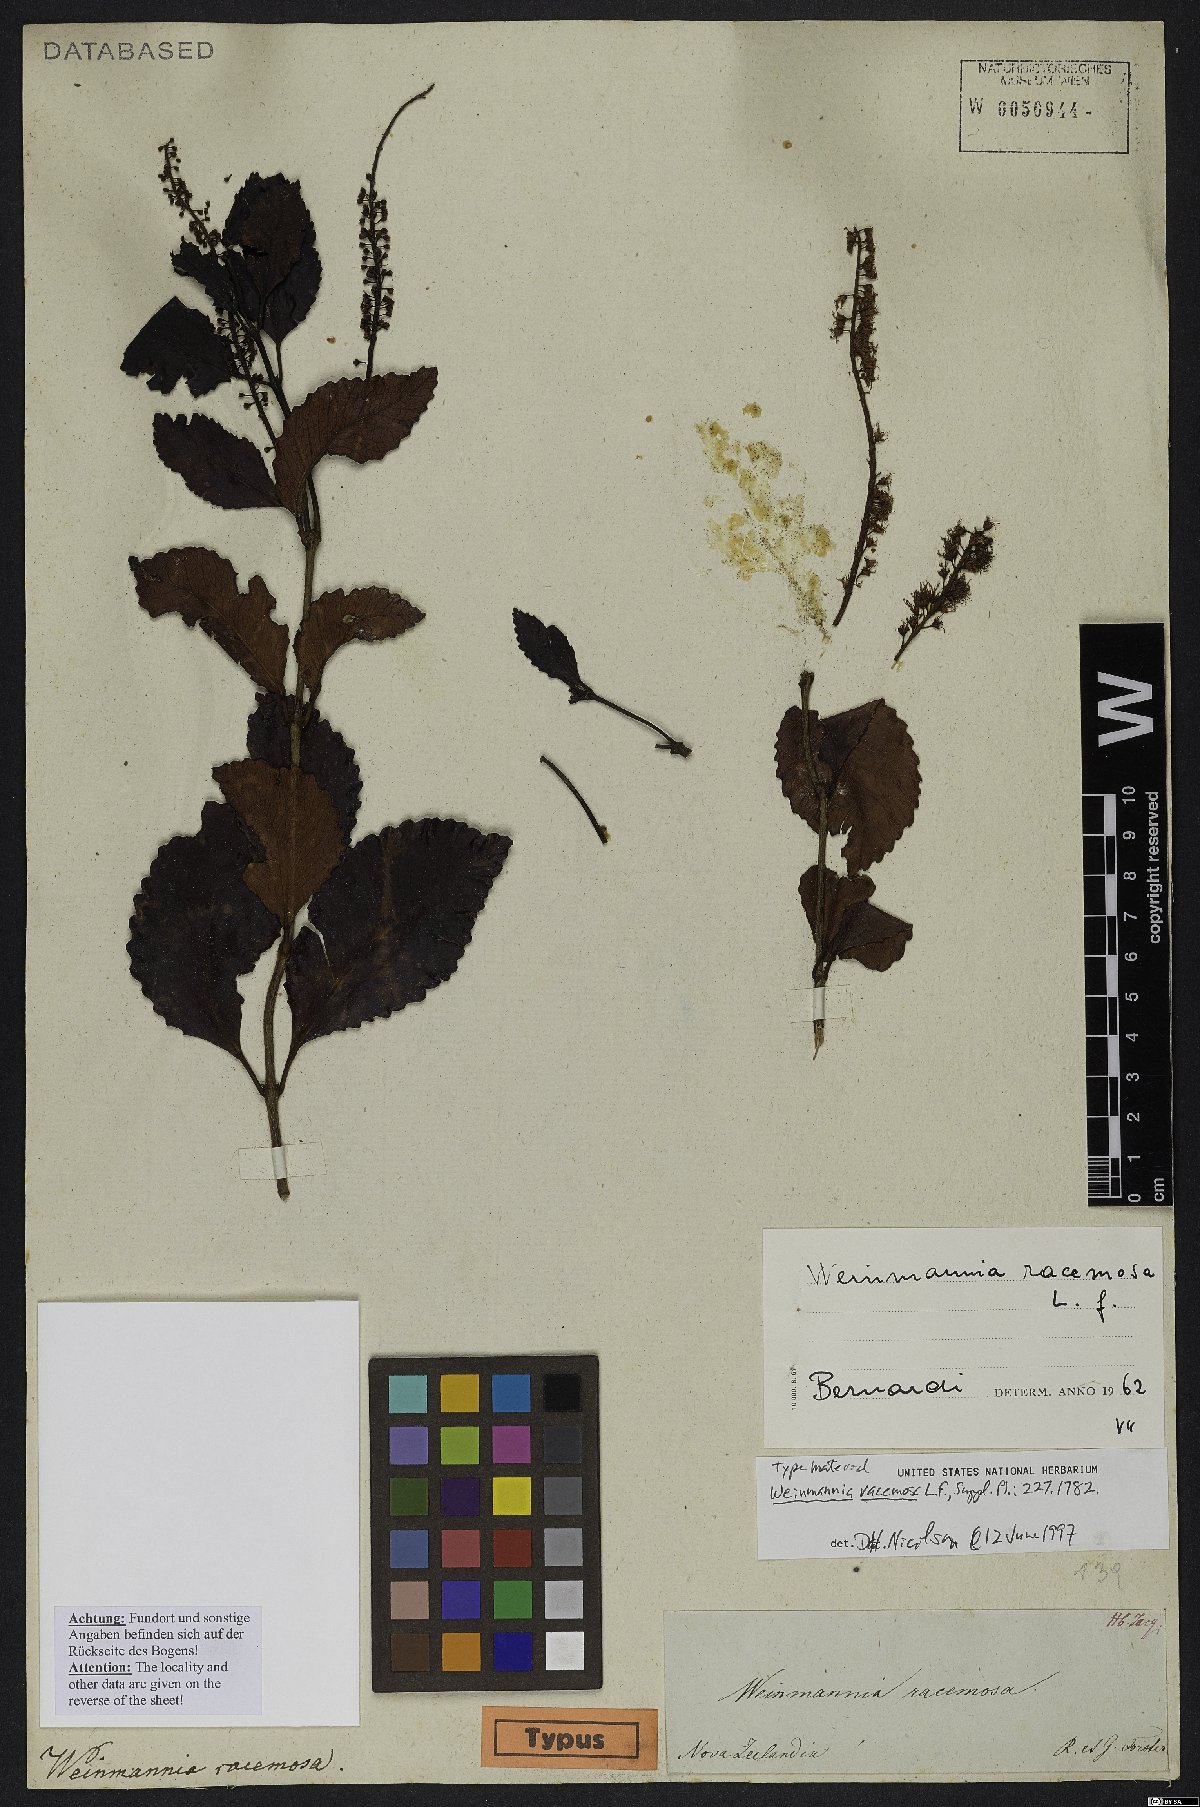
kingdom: Plantae
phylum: Tracheophyta
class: Magnoliopsida
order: Oxalidales
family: Cunoniaceae
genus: Pterophylla
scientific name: Pterophylla racemosa
